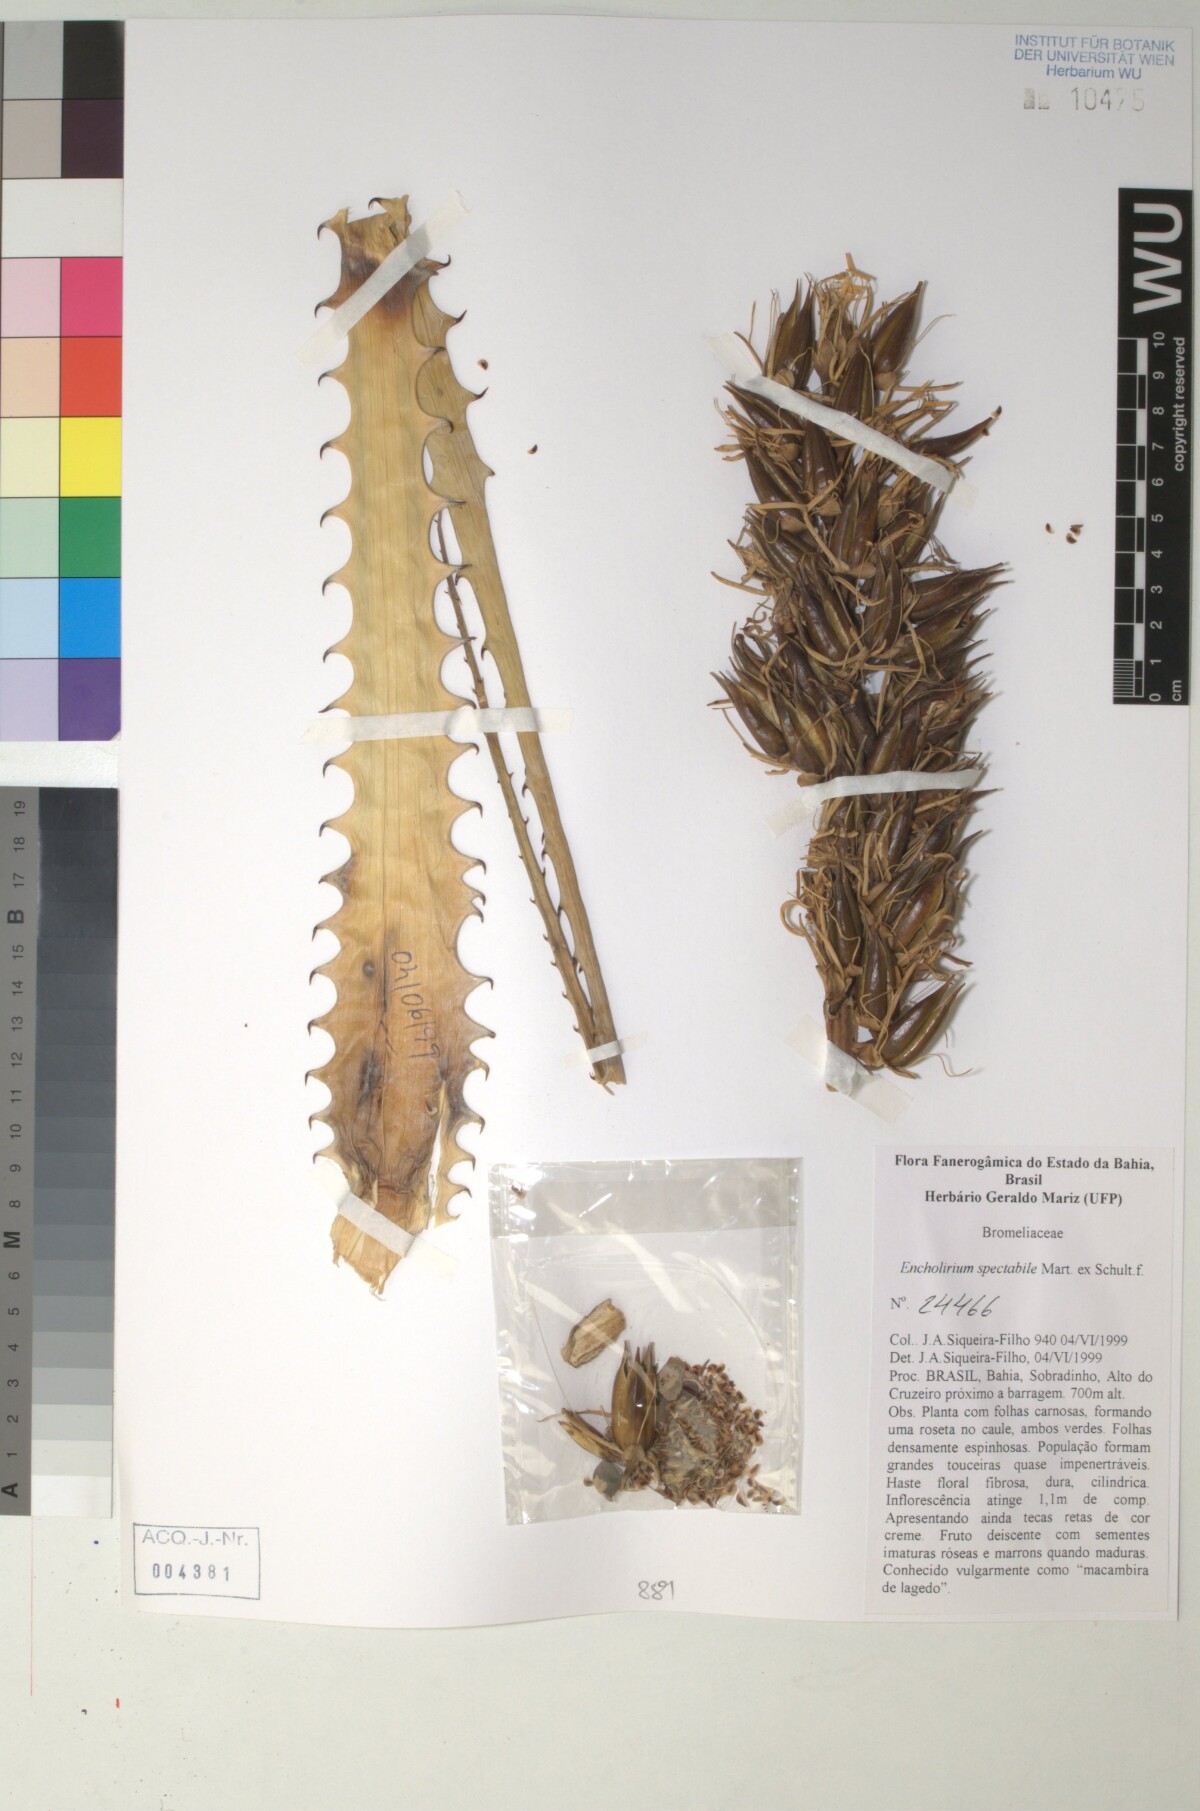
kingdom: Plantae
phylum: Tracheophyta
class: Liliopsida
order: Poales
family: Bromeliaceae
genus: Encholirium
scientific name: Encholirium
